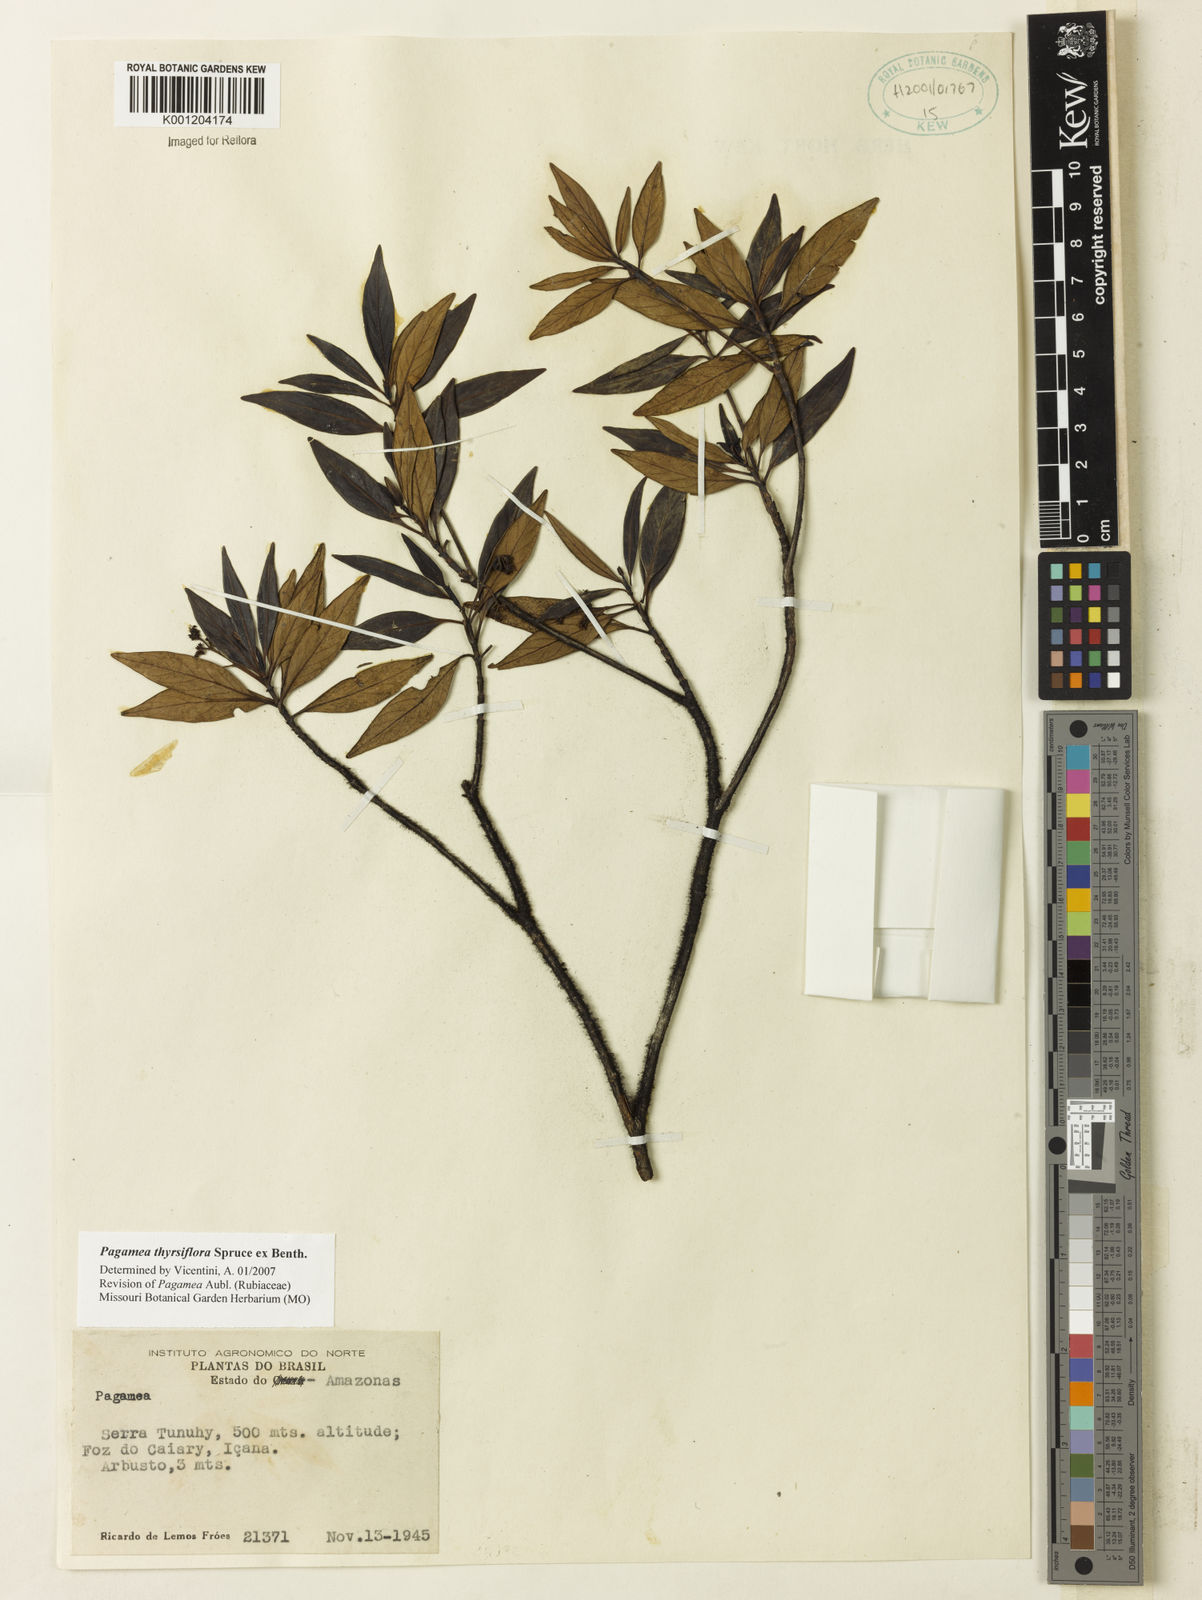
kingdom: Plantae
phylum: Tracheophyta
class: Magnoliopsida
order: Gentianales
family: Rubiaceae
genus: Pagamea
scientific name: Pagamea thyrsiflora
